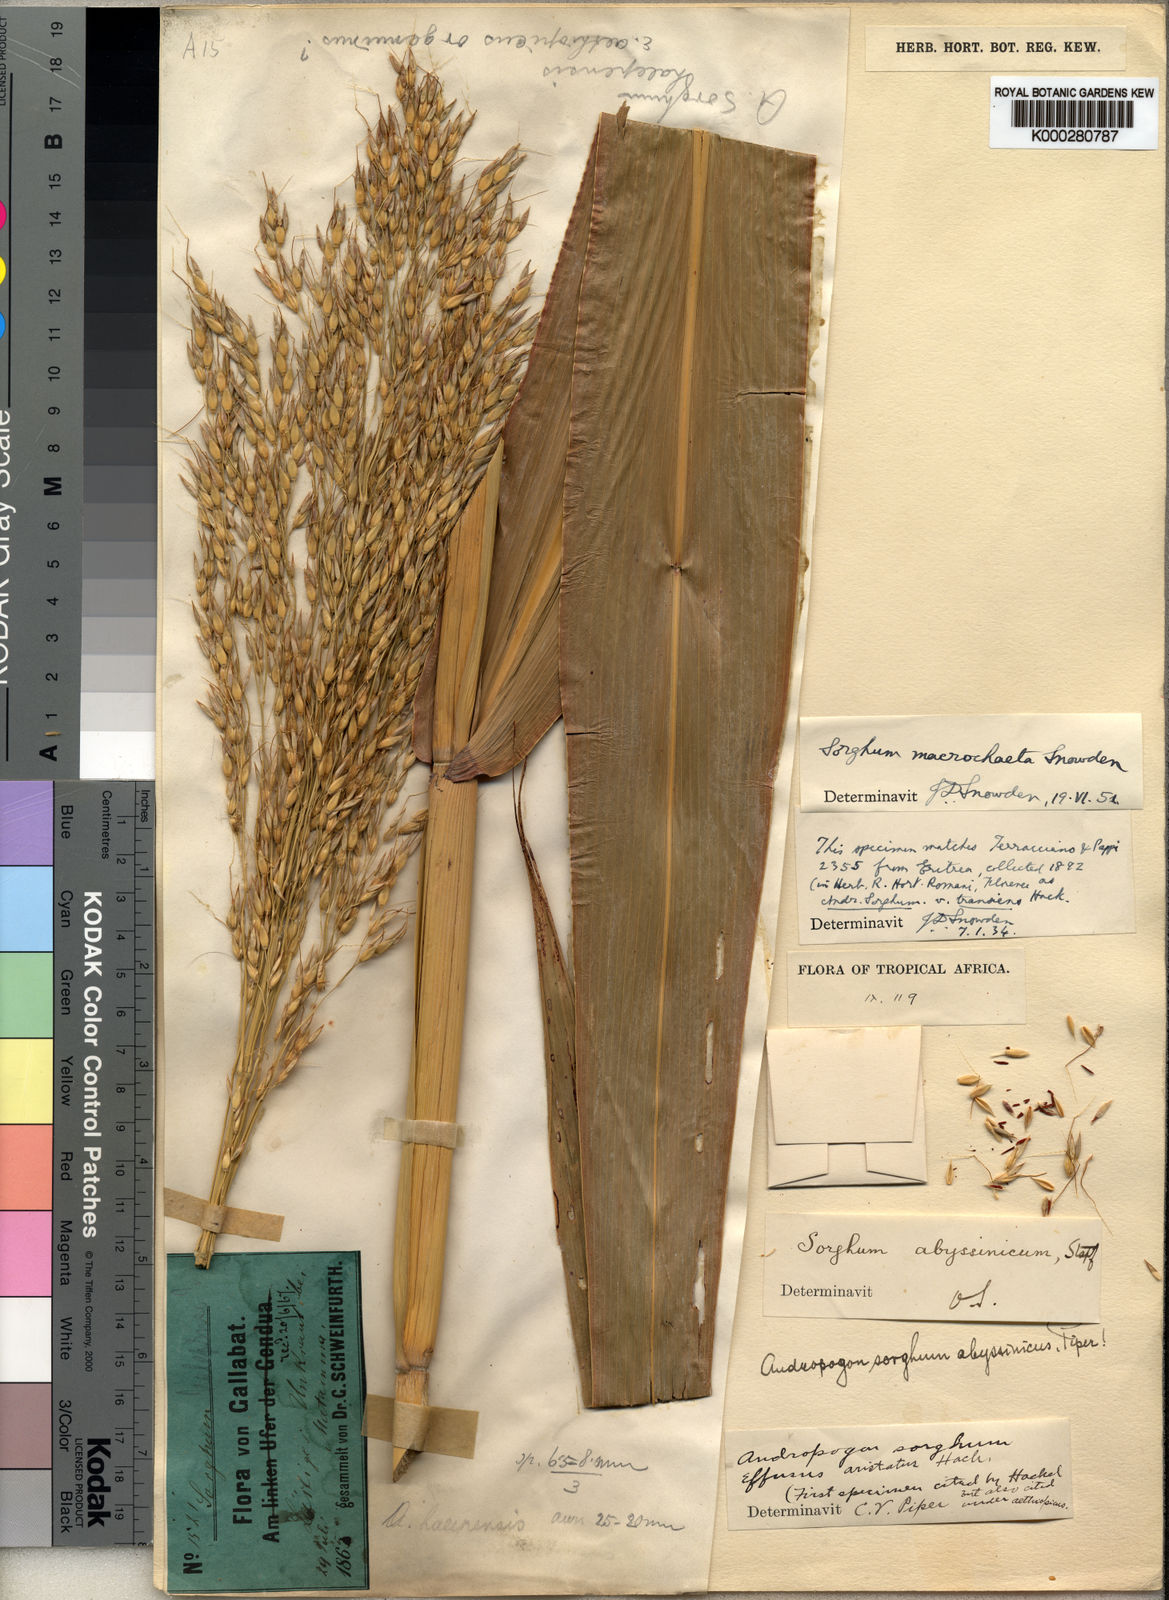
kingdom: Plantae
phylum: Tracheophyta
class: Liliopsida
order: Poales
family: Poaceae
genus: Sorghum
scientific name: Sorghum arundinaceum
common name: Sorghum
